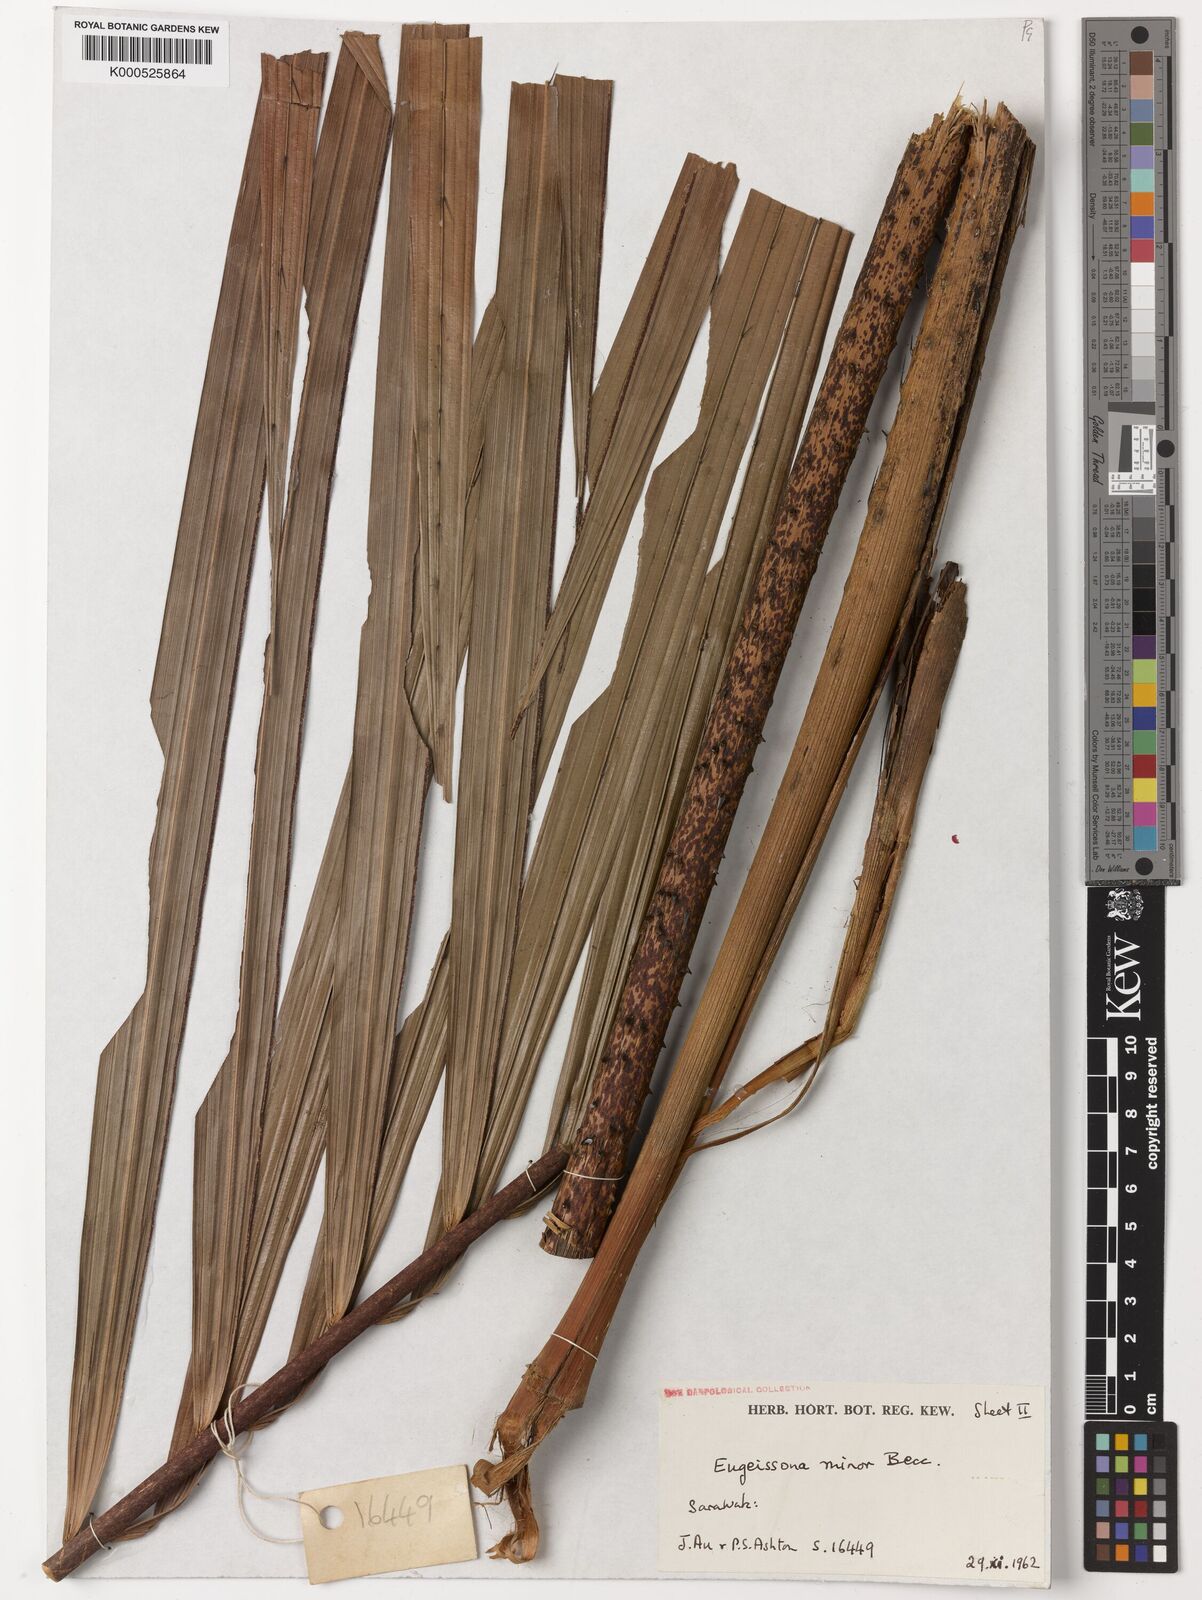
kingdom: Plantae
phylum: Tracheophyta
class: Liliopsida
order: Arecales
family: Arecaceae
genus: Eugeissona
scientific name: Eugeissona minor
